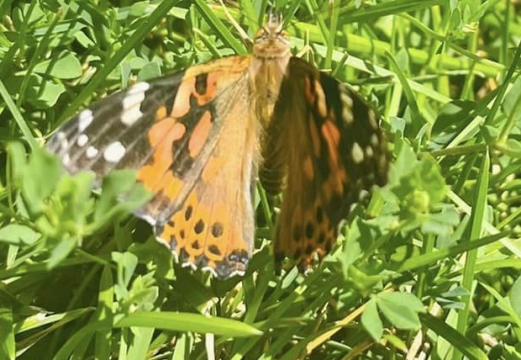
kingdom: Animalia
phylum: Arthropoda
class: Insecta
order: Lepidoptera
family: Nymphalidae
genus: Vanessa
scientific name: Vanessa cardui
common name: Painted Lady
